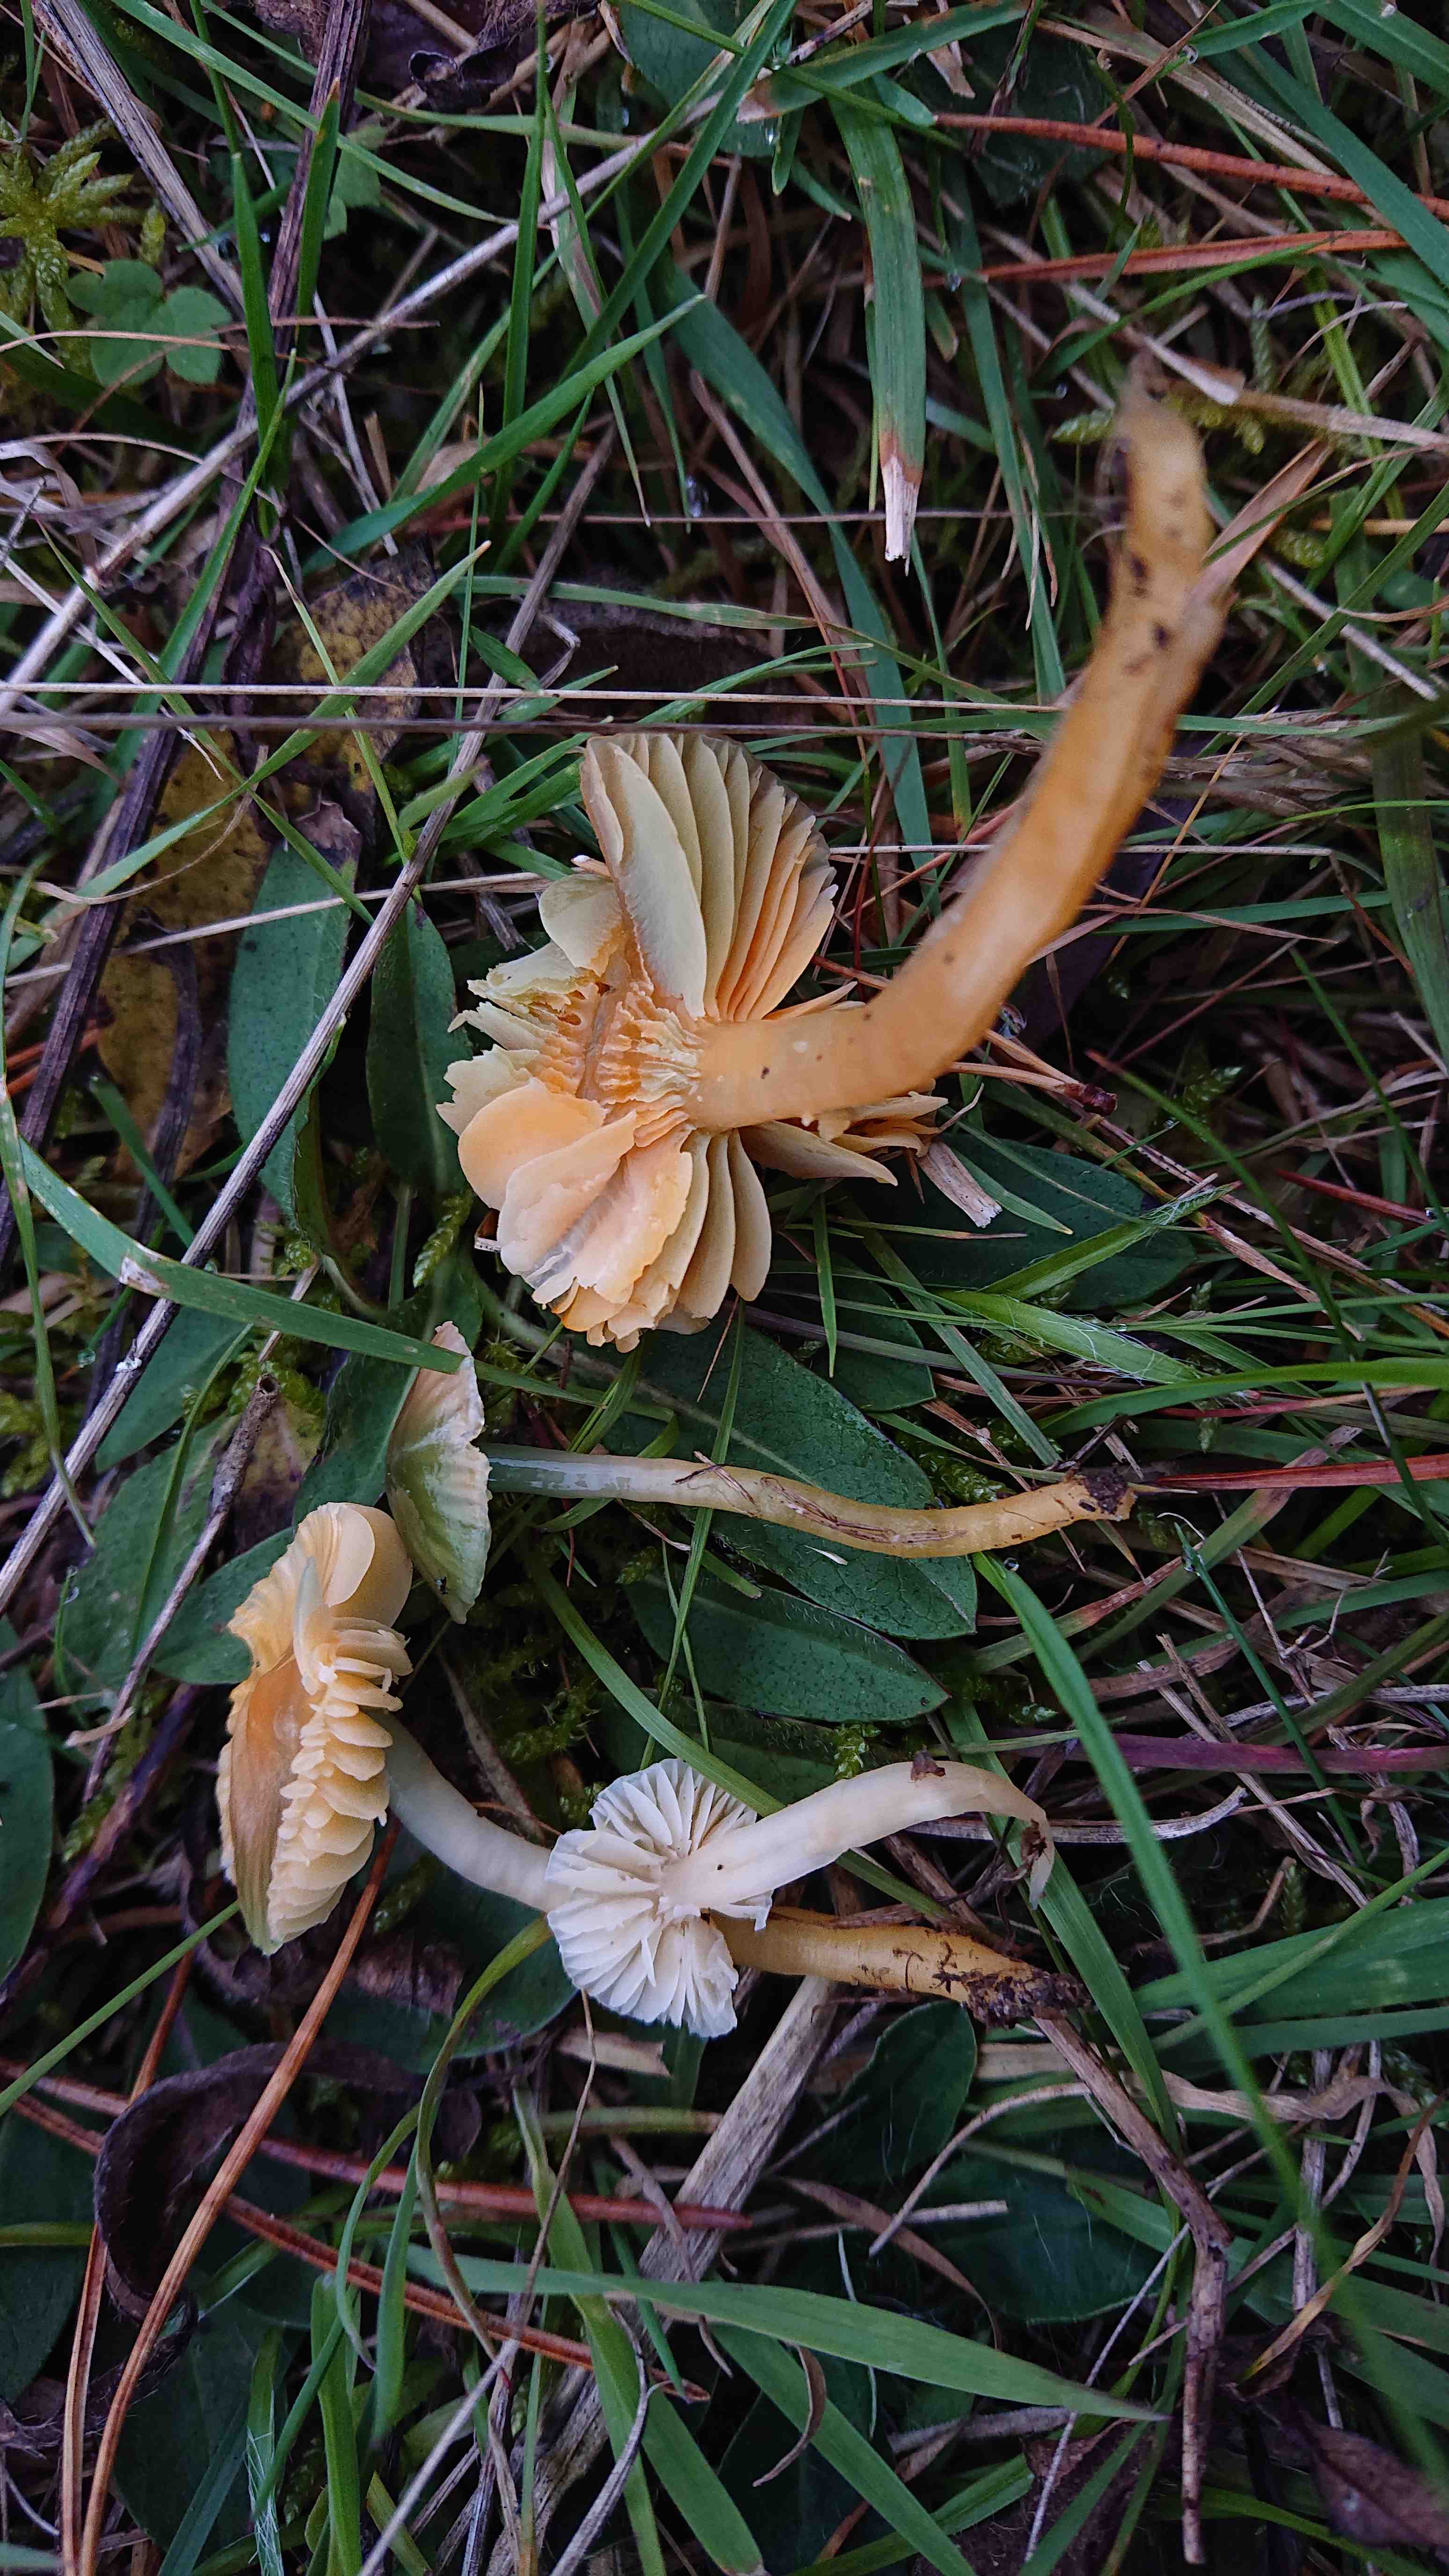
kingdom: Fungi
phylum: Basidiomycota
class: Agaricomycetes
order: Agaricales
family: Hygrophoraceae
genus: Gliophorus
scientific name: Gliophorus psittacinus
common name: papegøje-vokshat
